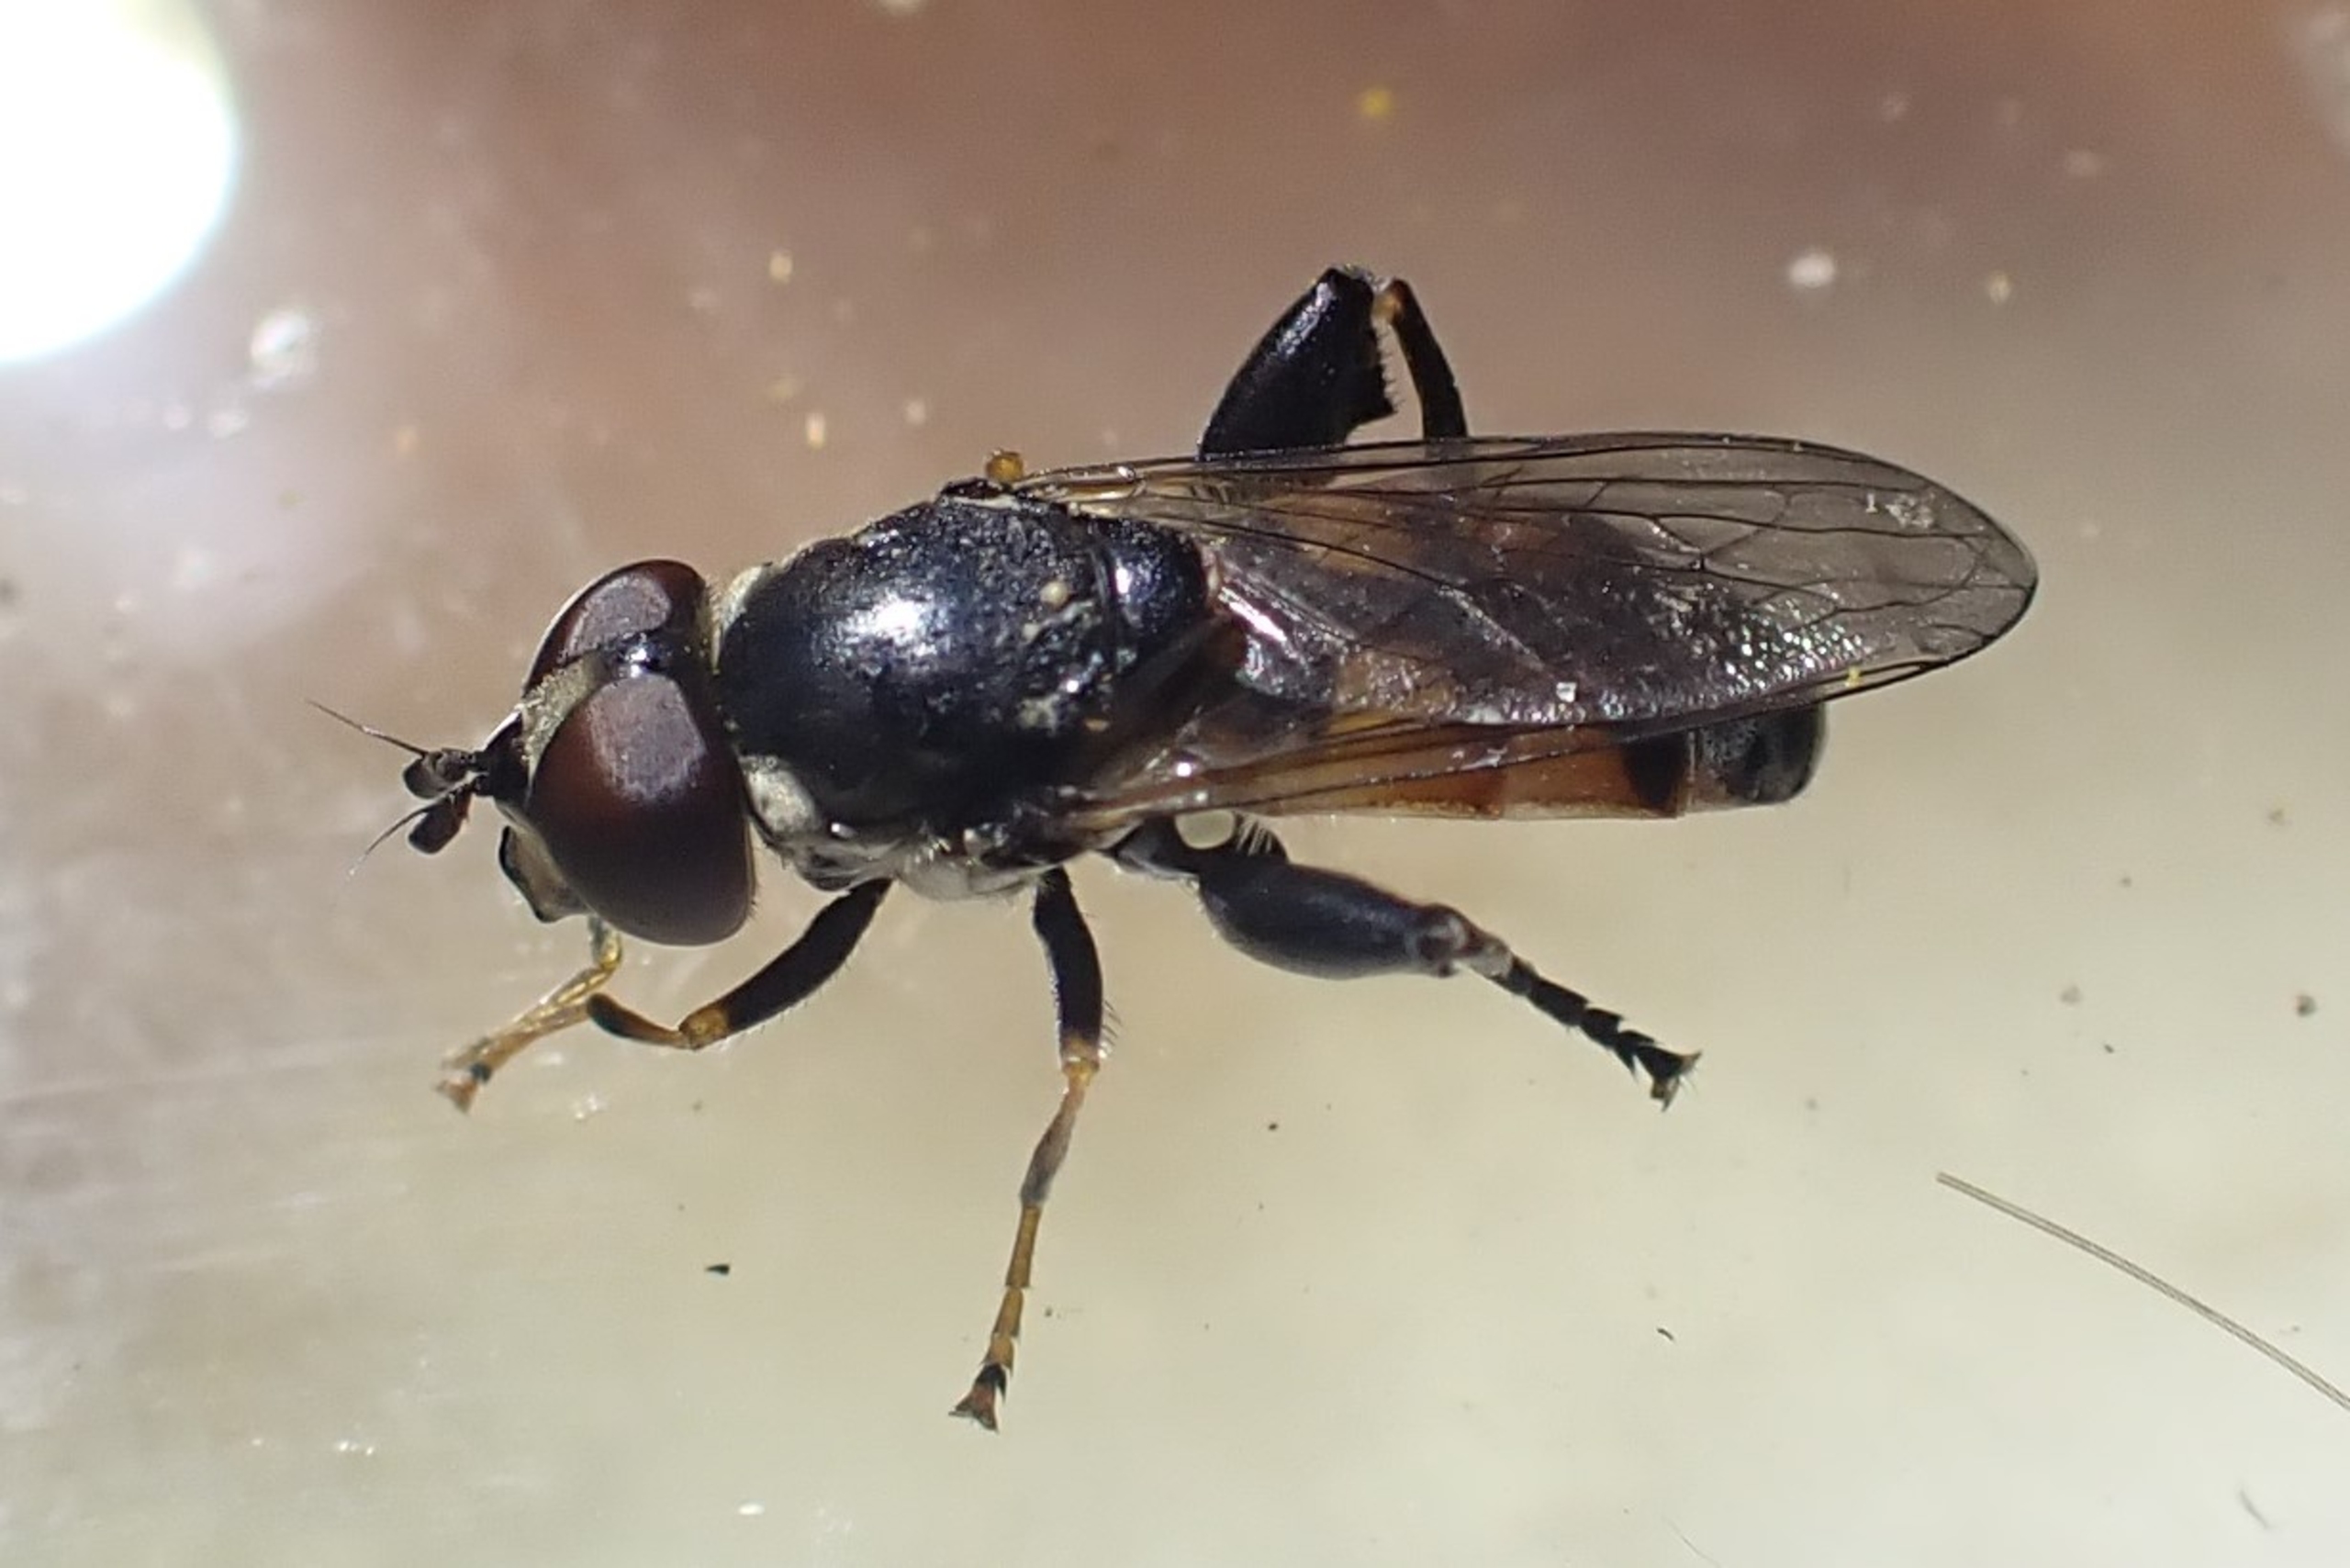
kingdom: Animalia
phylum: Arthropoda
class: Insecta
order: Diptera
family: Syrphidae
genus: Tropidia
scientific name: Tropidia scita
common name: Køl-svirreflue
